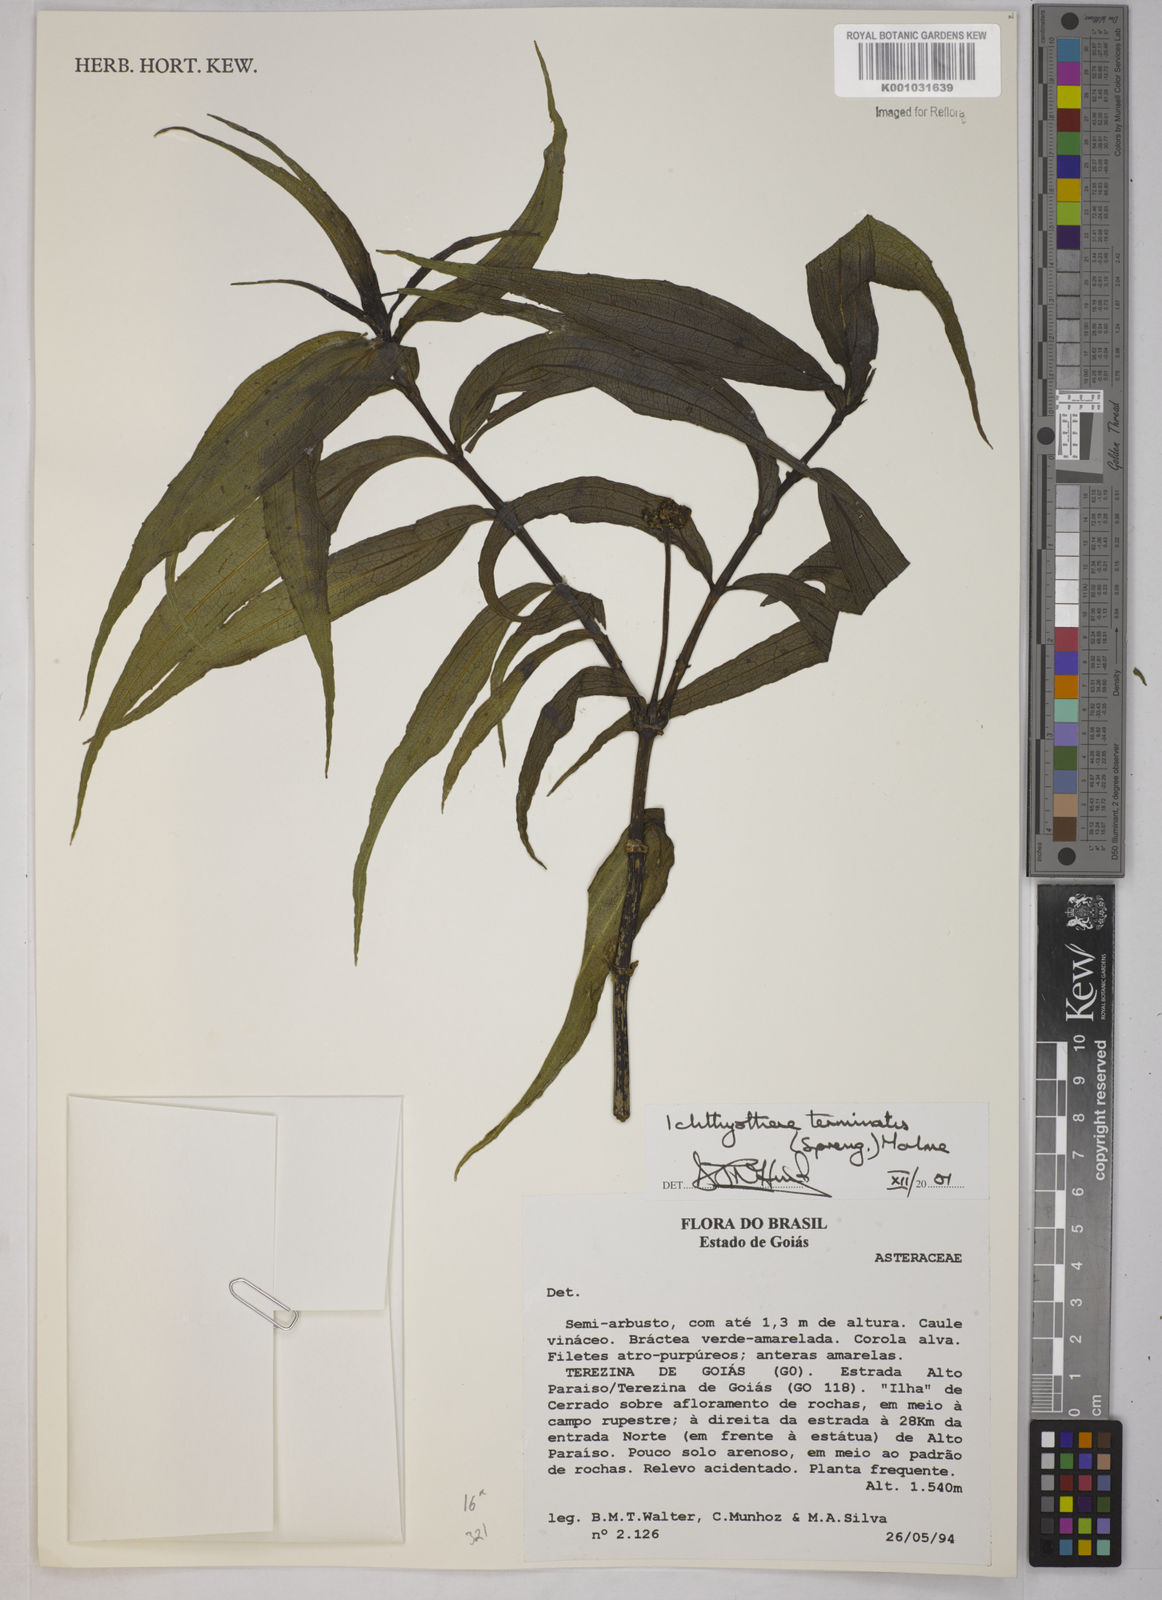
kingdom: Plantae
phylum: Tracheophyta
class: Magnoliopsida
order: Asterales
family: Asteraceae
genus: Ichthyothere
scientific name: Ichthyothere terminalis
